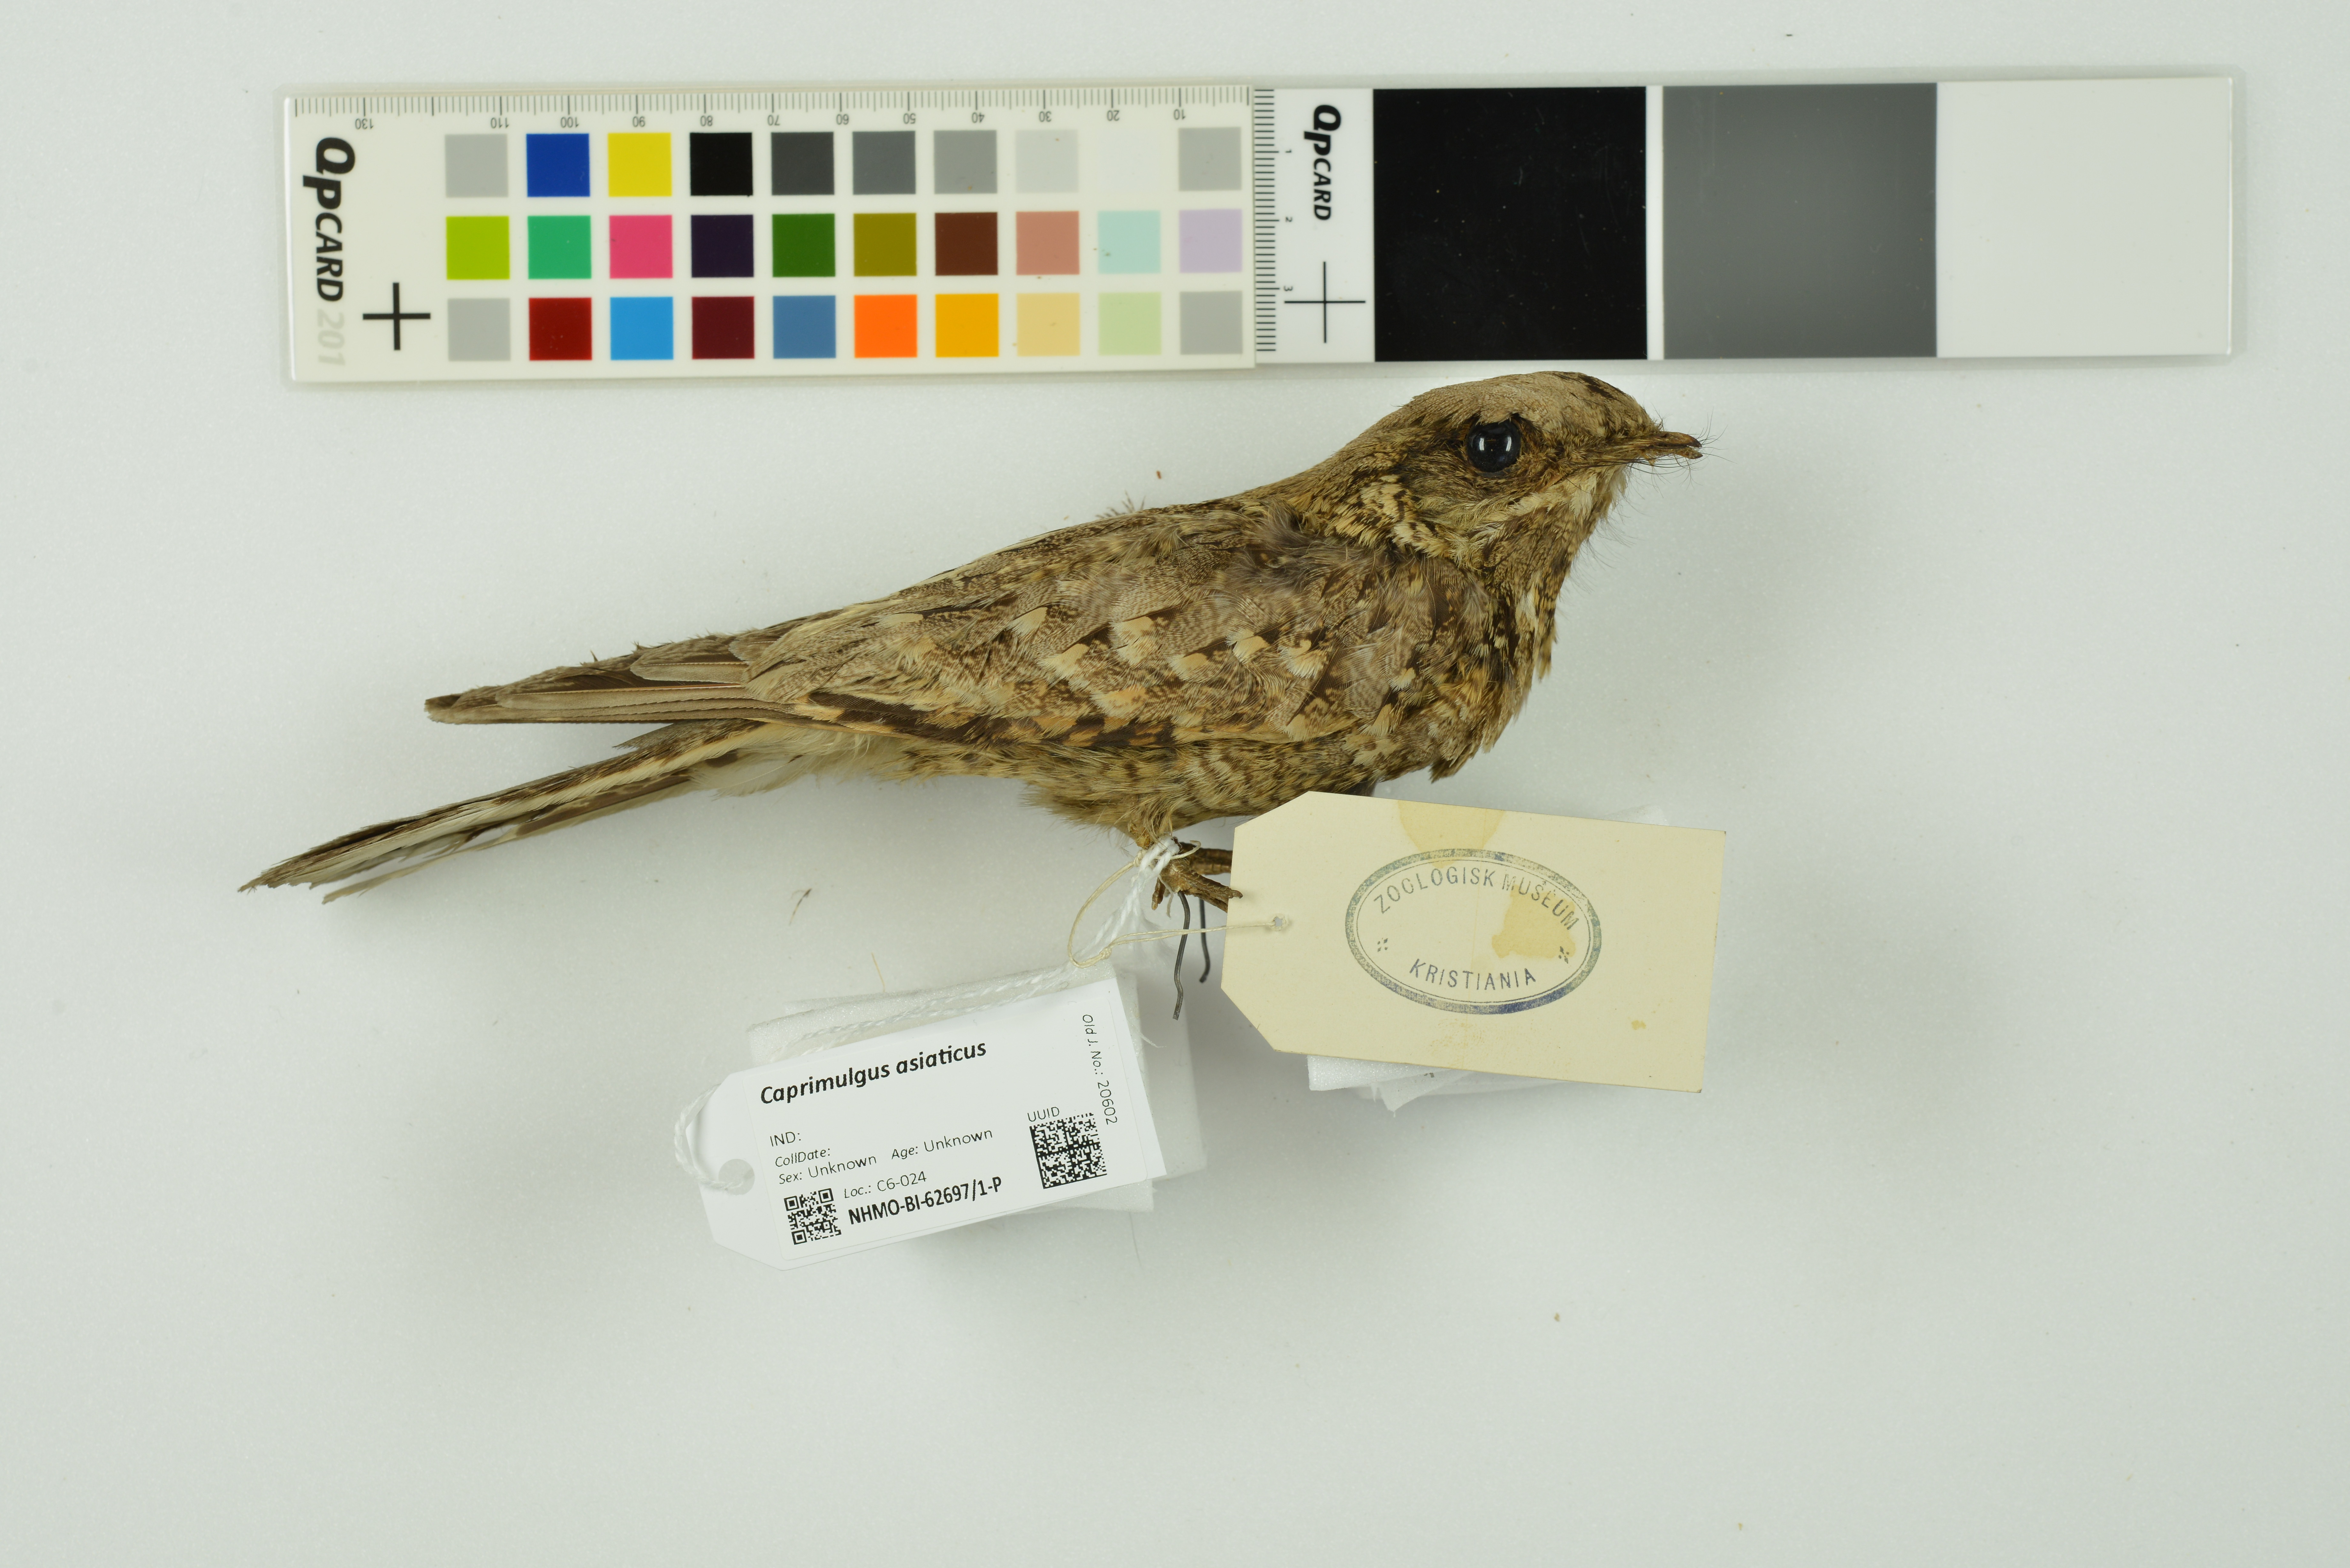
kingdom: Animalia
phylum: Chordata
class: Aves
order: Caprimulgiformes
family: Caprimulgidae
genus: Caprimulgus
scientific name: Caprimulgus asiaticus
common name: Indian nightjar
